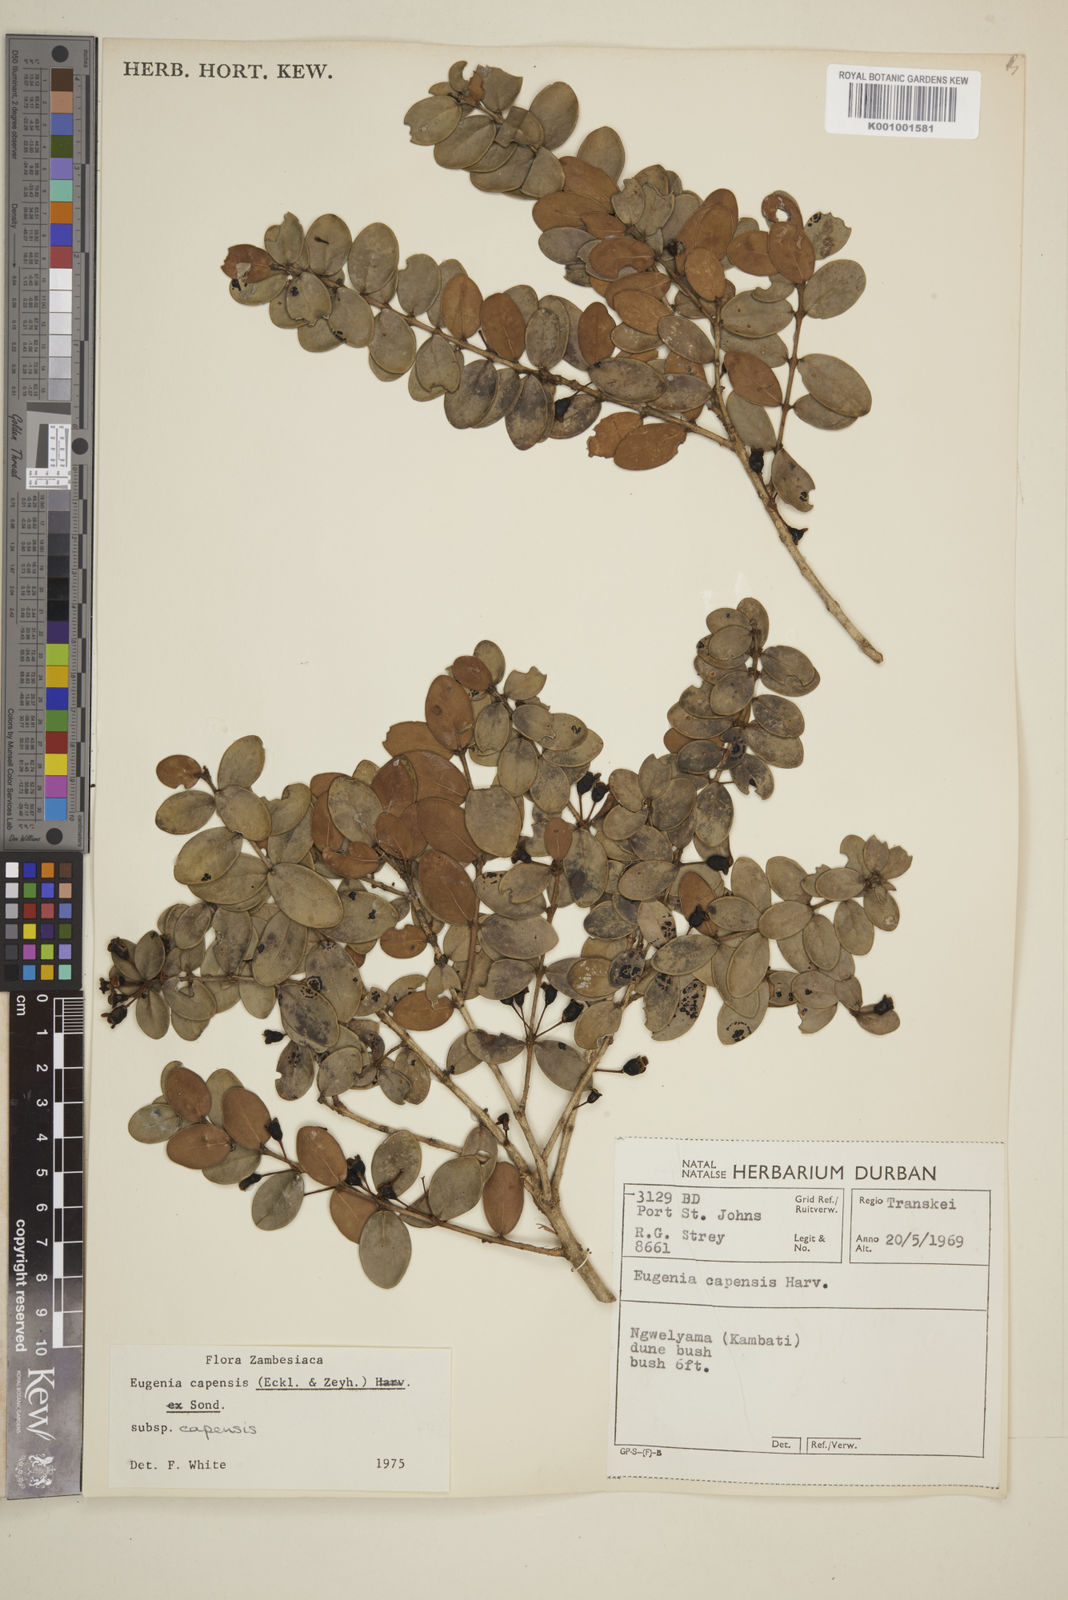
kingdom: Plantae
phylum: Tracheophyta
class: Magnoliopsida
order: Myrtales
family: Myrtaceae
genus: Eugenia
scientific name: Eugenia capensis
